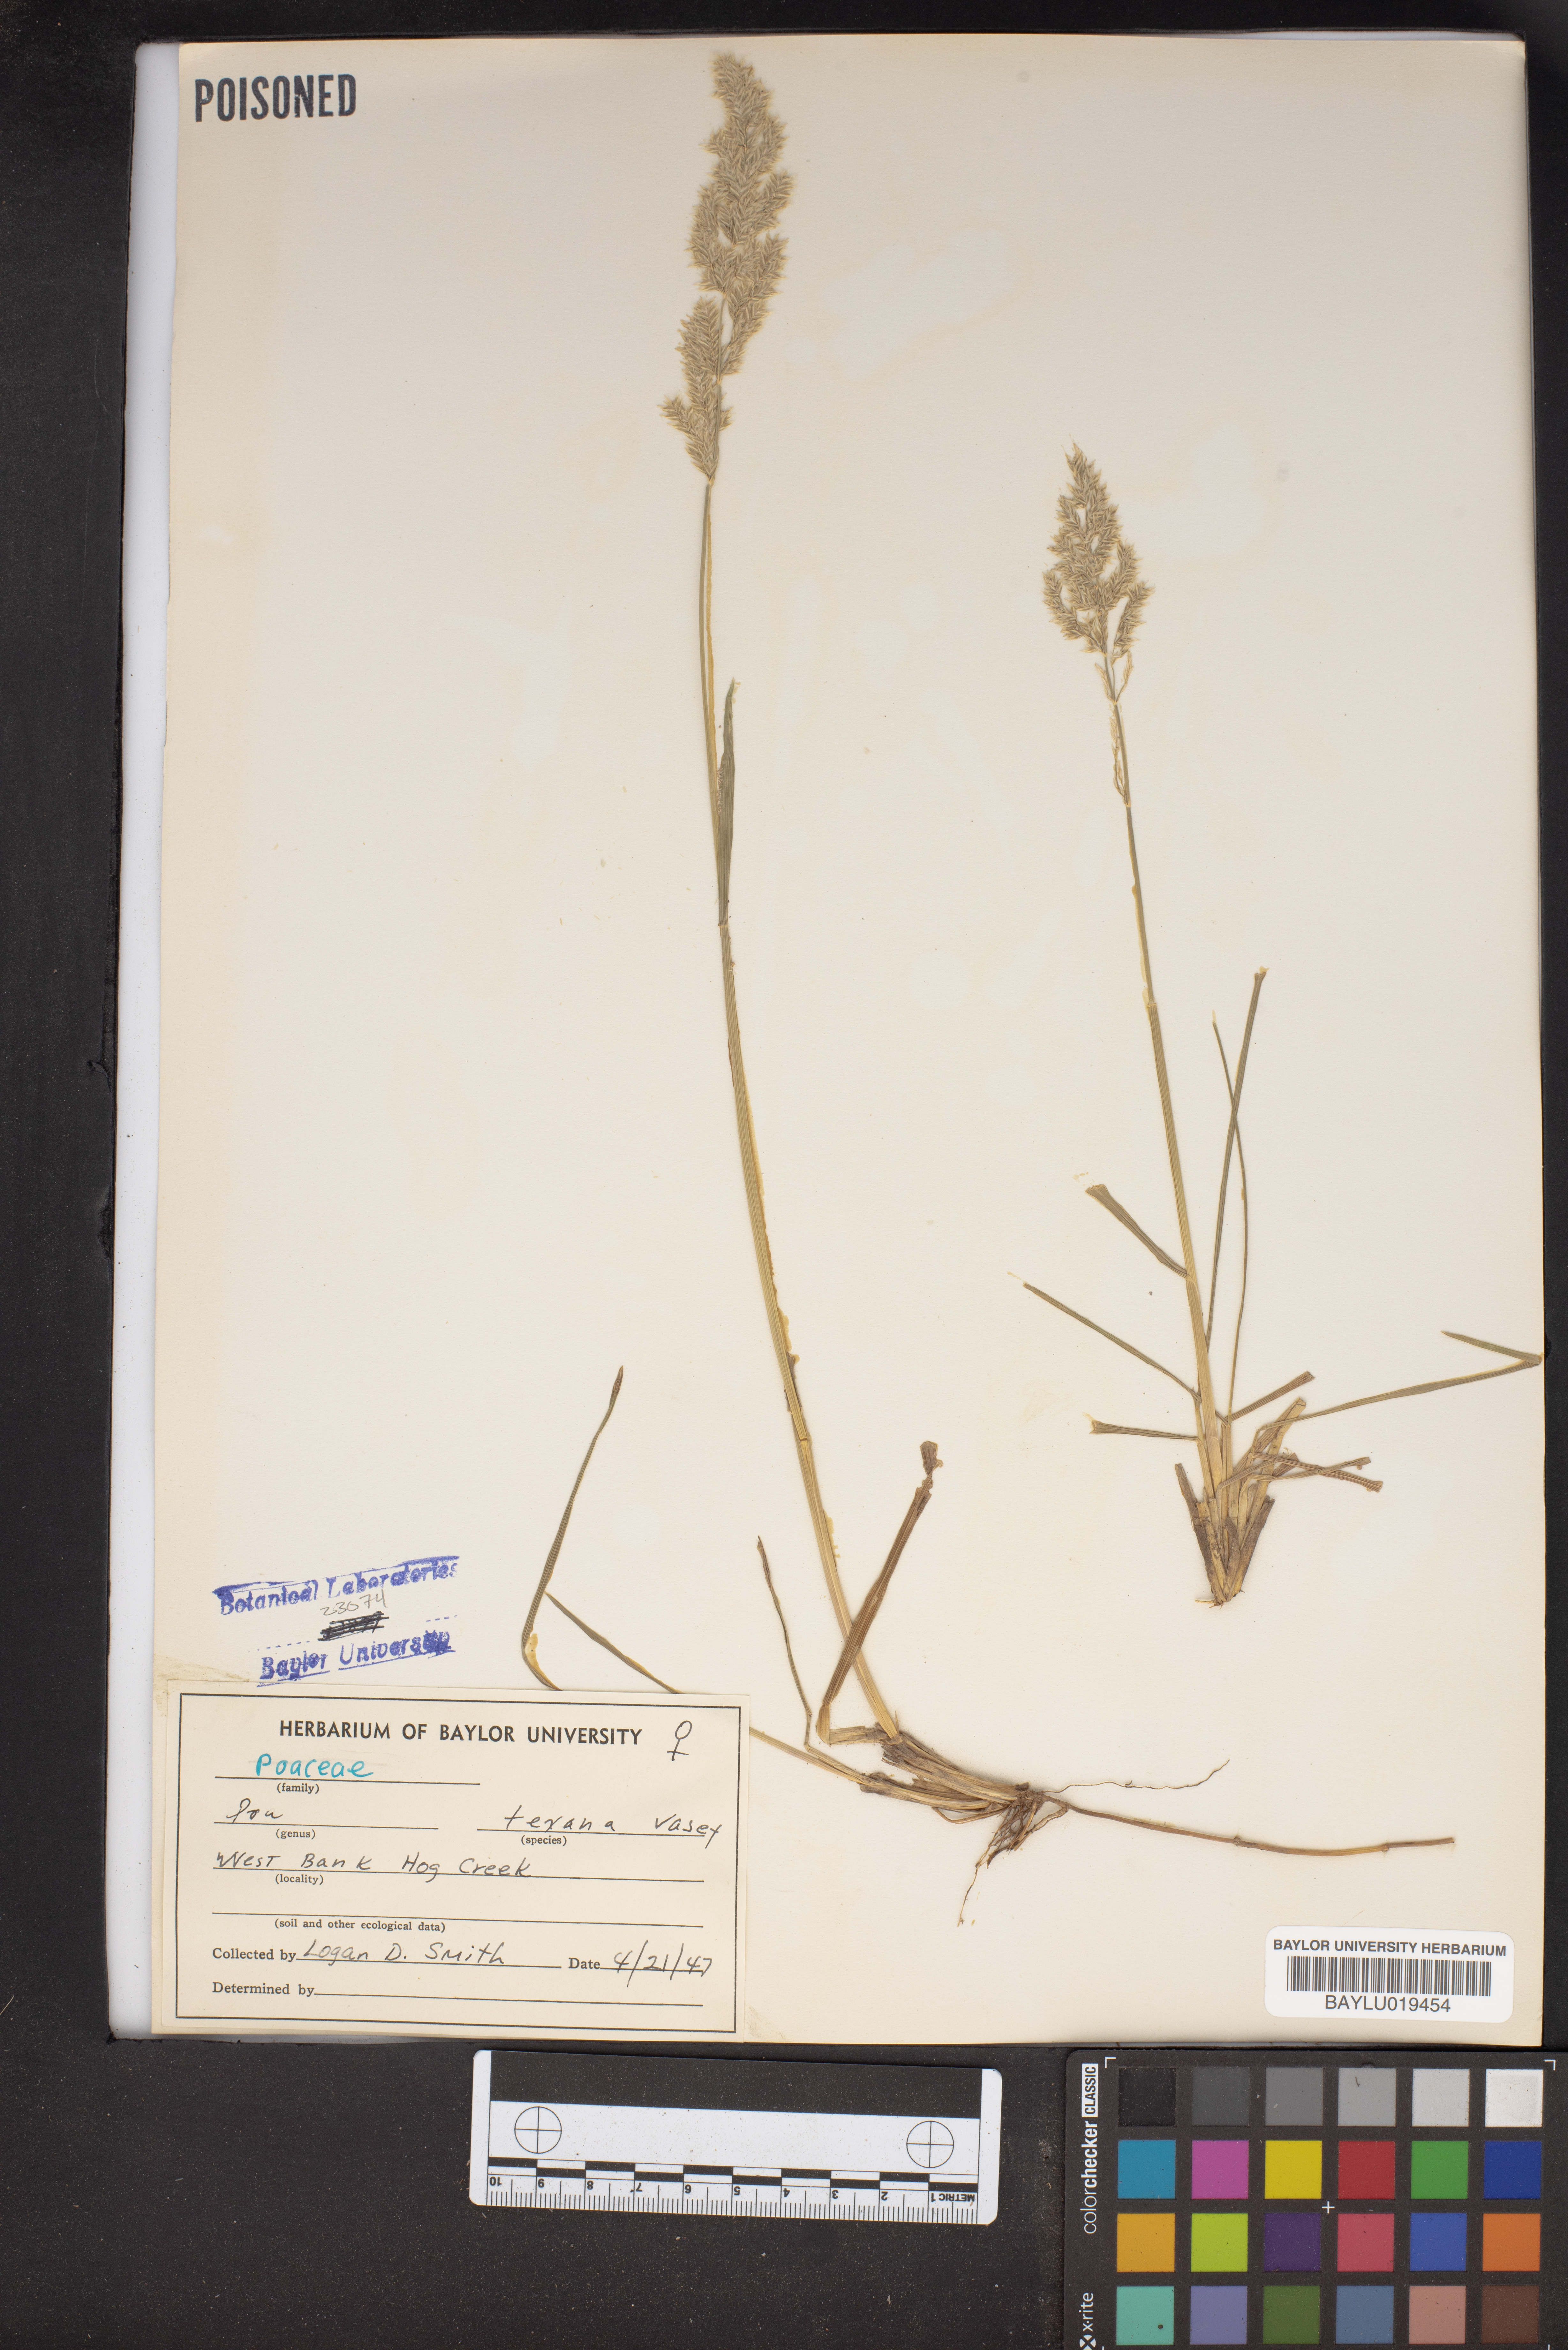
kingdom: Plantae
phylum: Tracheophyta
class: Liliopsida
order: Poales
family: Poaceae
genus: Allolepis
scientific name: Allolepis texana
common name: False salt grass
